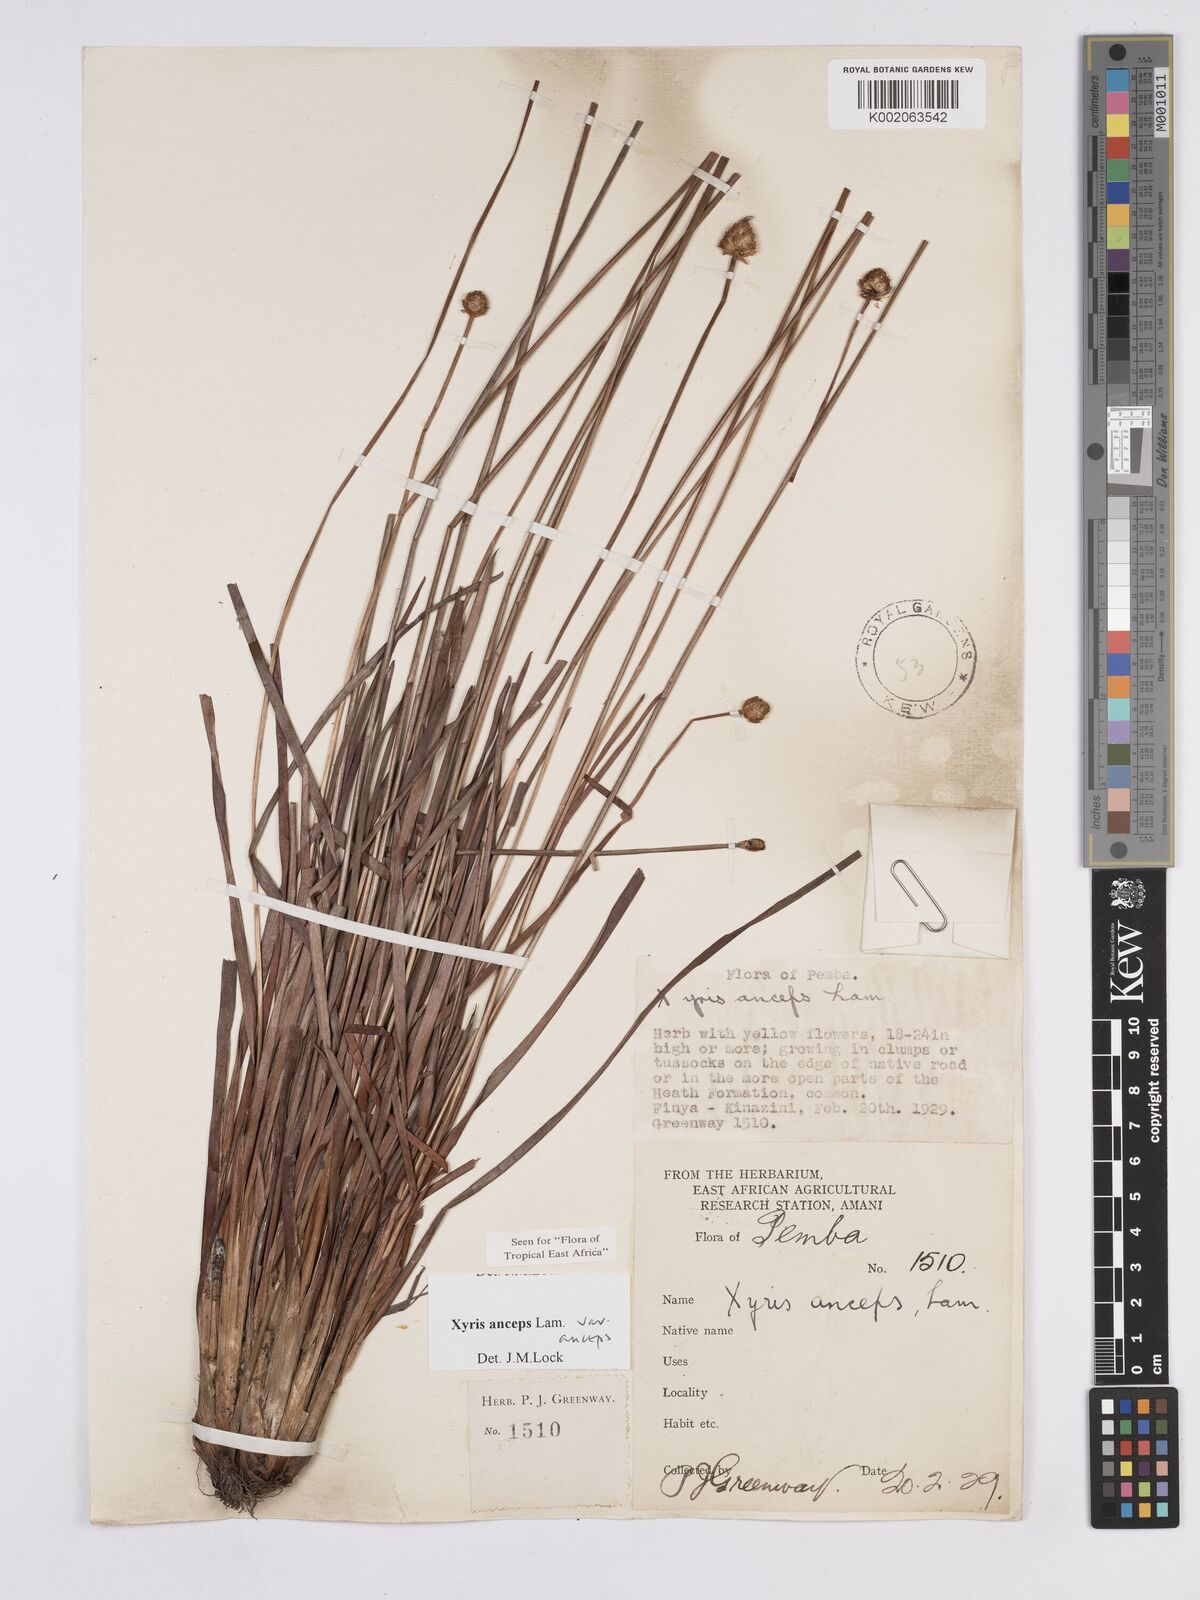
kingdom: Plantae
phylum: Tracheophyta
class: Liliopsida
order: Poales
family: Xyridaceae
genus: Xyris
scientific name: Xyris anceps
